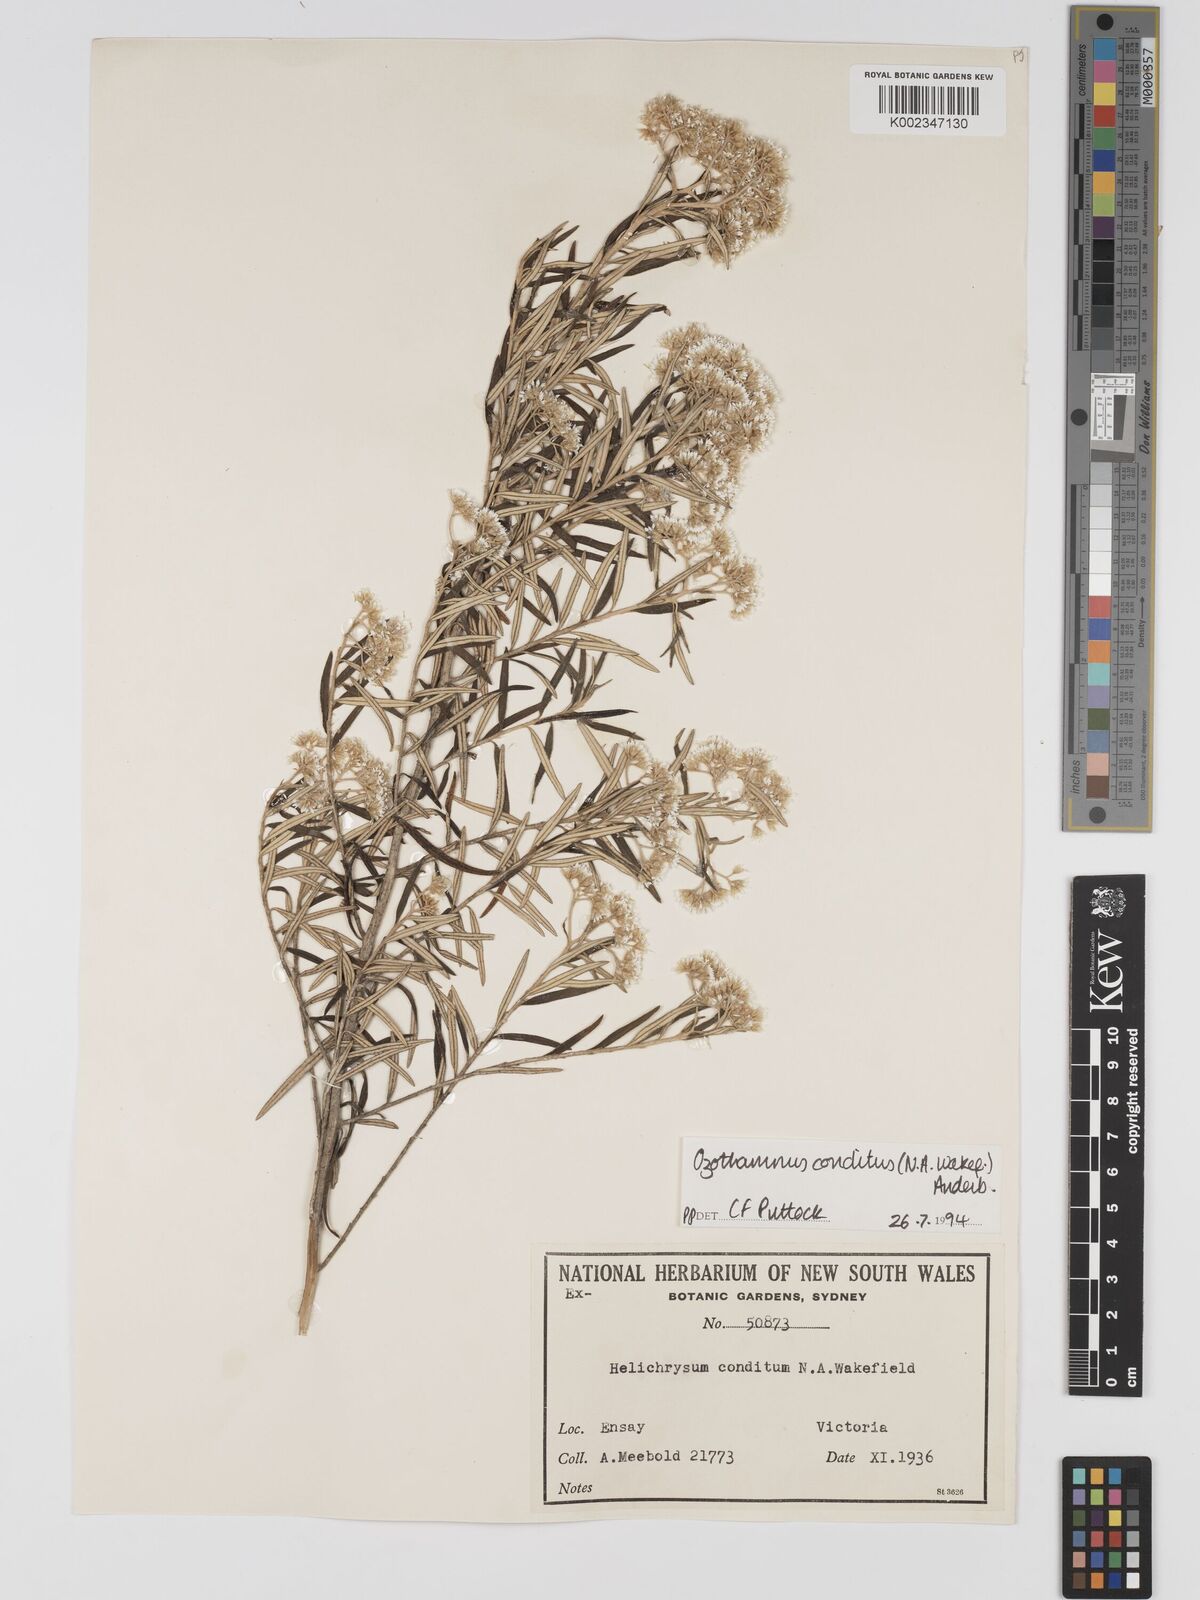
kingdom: Plantae
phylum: Tracheophyta
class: Magnoliopsida
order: Asterales
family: Asteraceae
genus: Ozothamnus
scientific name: Ozothamnus conditus
